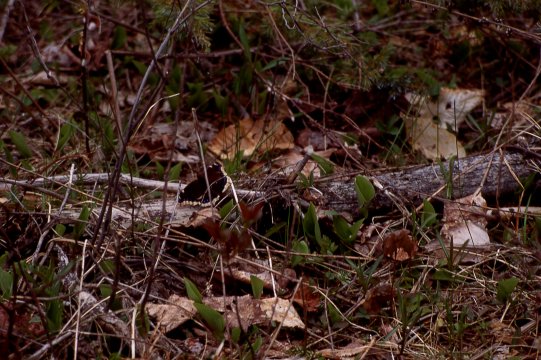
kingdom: Animalia
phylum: Arthropoda
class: Insecta
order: Lepidoptera
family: Nymphalidae
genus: Nymphalis
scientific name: Nymphalis antiopa
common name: Mourning Cloak
